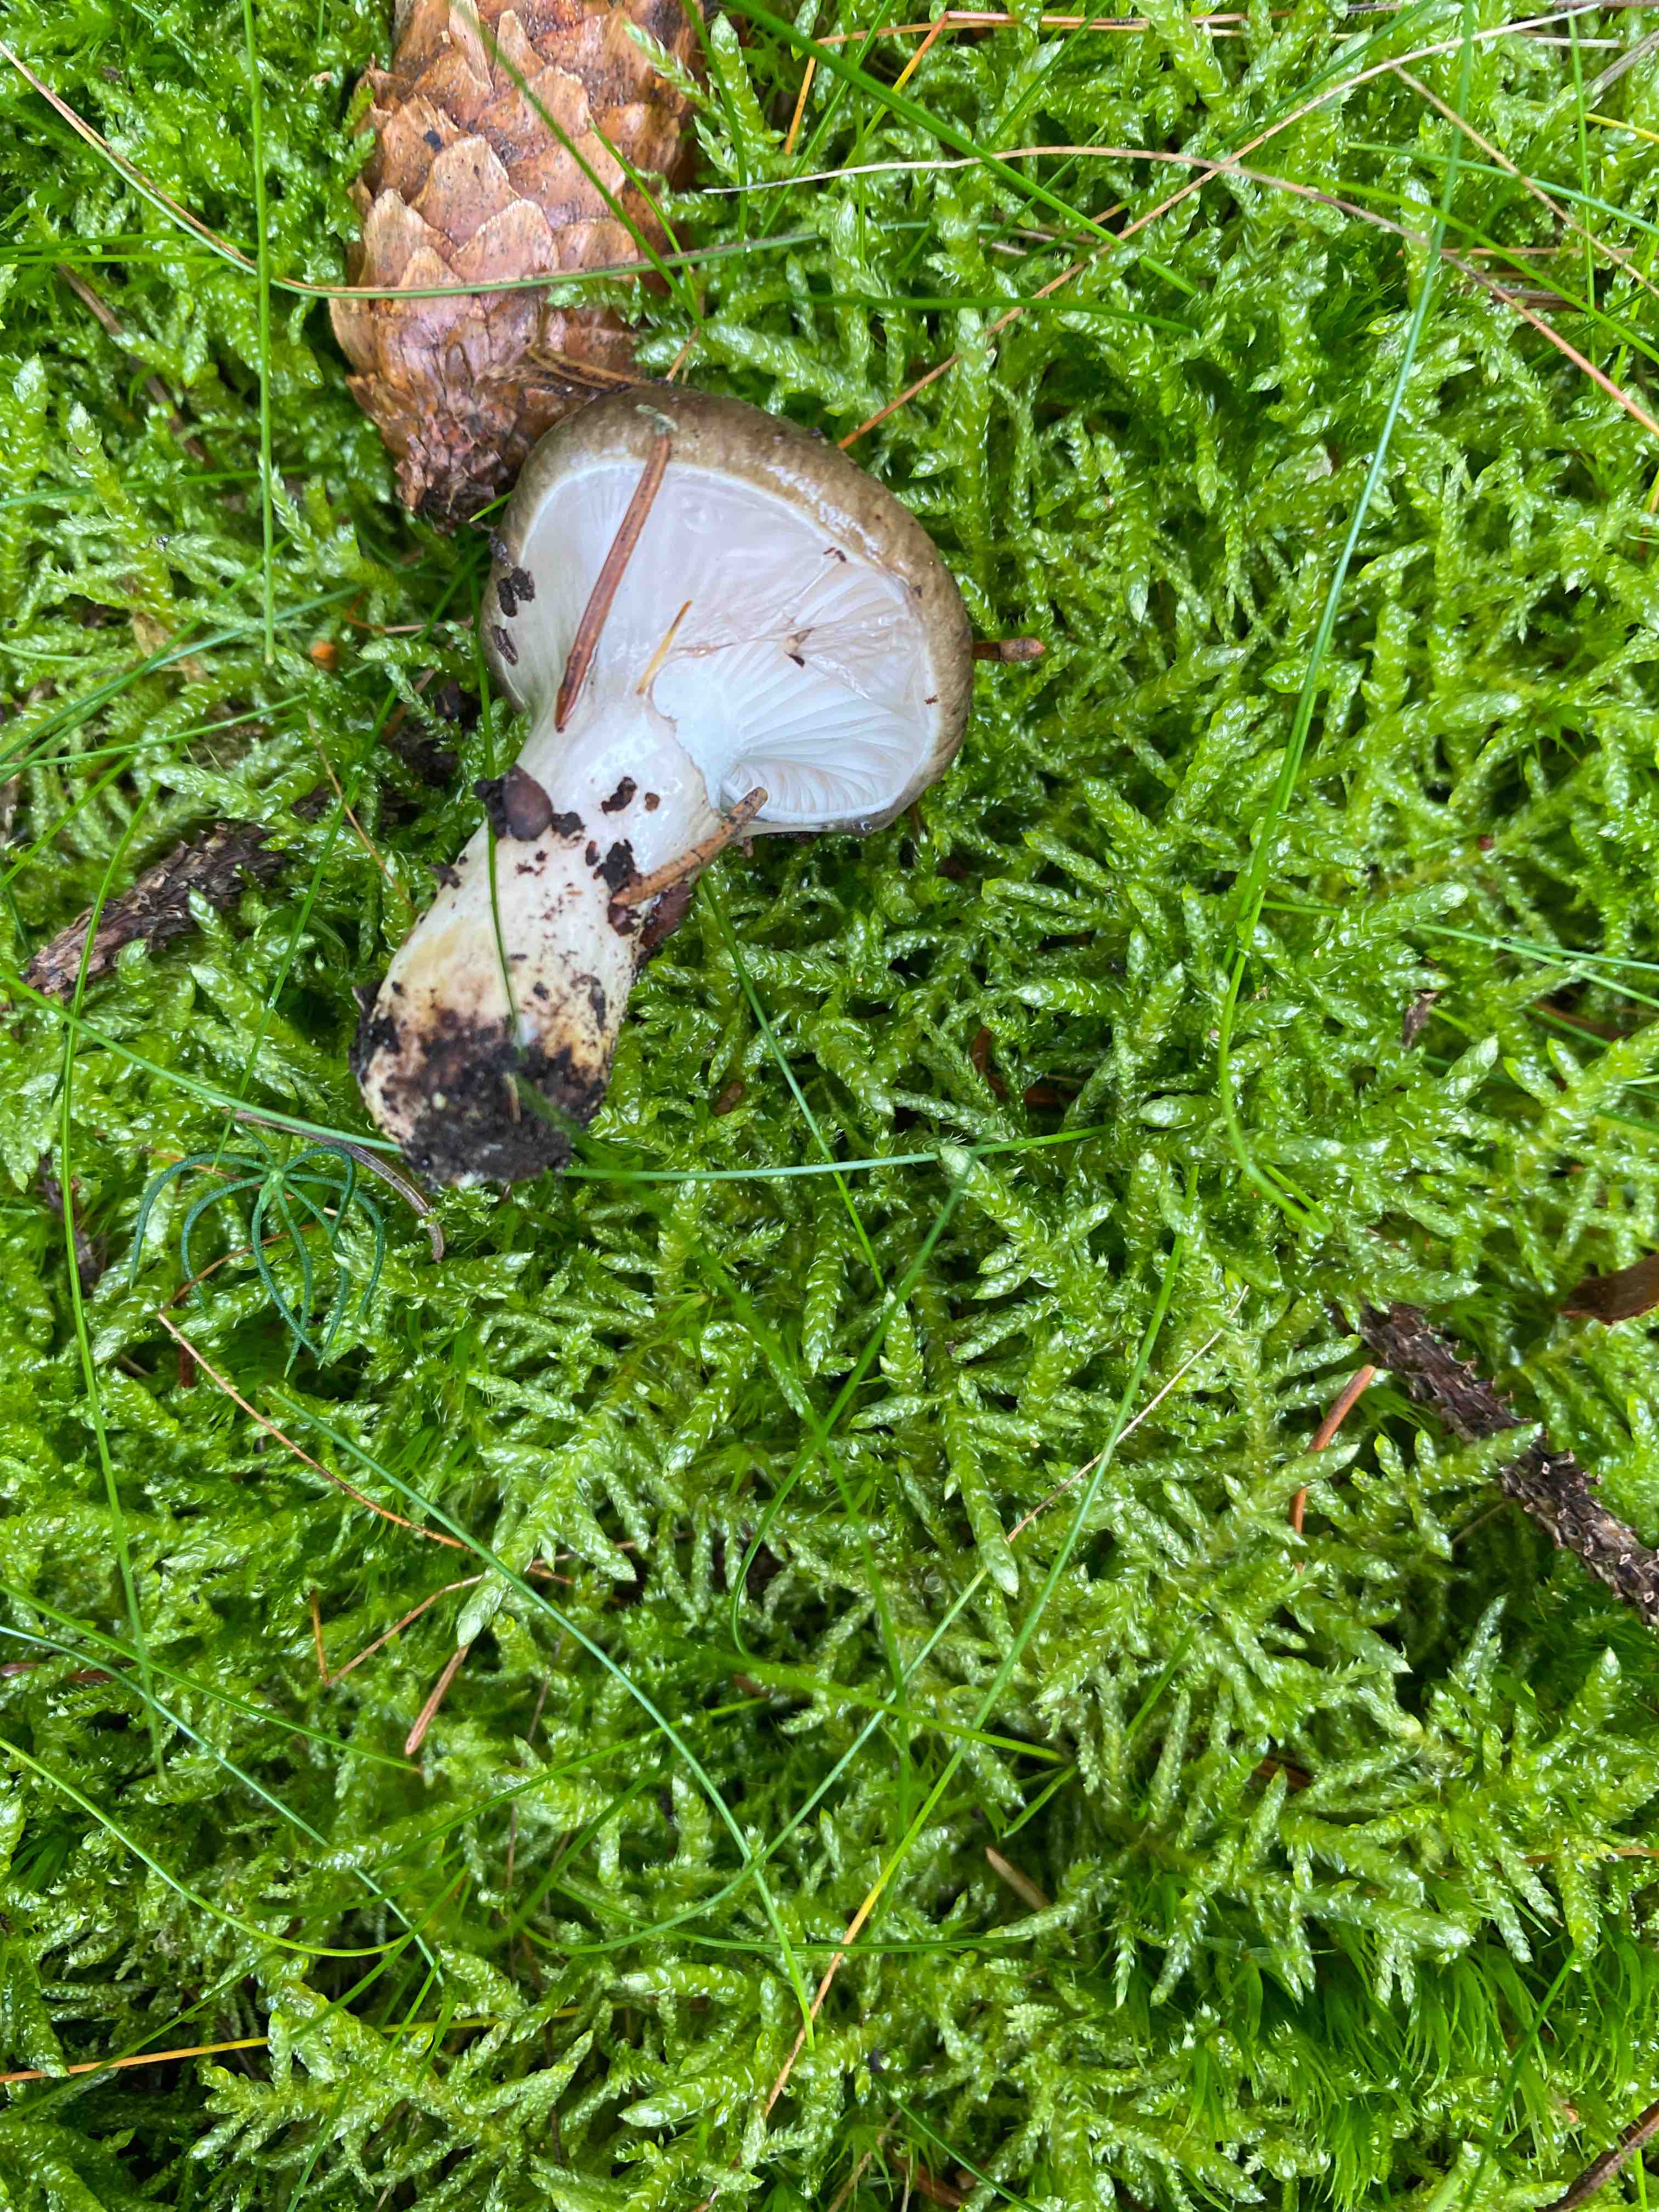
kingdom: Fungi
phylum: Basidiomycota
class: Agaricomycetes
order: Boletales
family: Gomphidiaceae
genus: Gomphidius
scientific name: Gomphidius glutinosus
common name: grå slimslør
